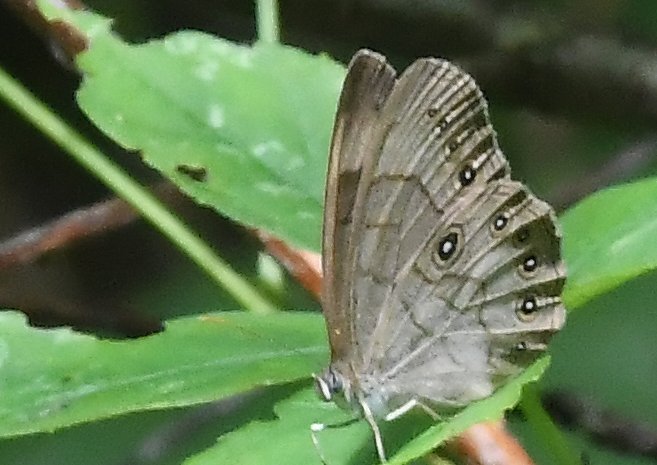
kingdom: Animalia
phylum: Arthropoda
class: Insecta
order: Lepidoptera
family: Nymphalidae
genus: Lethe
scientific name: Lethe eurydice
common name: Appalachian Eyed Brown
